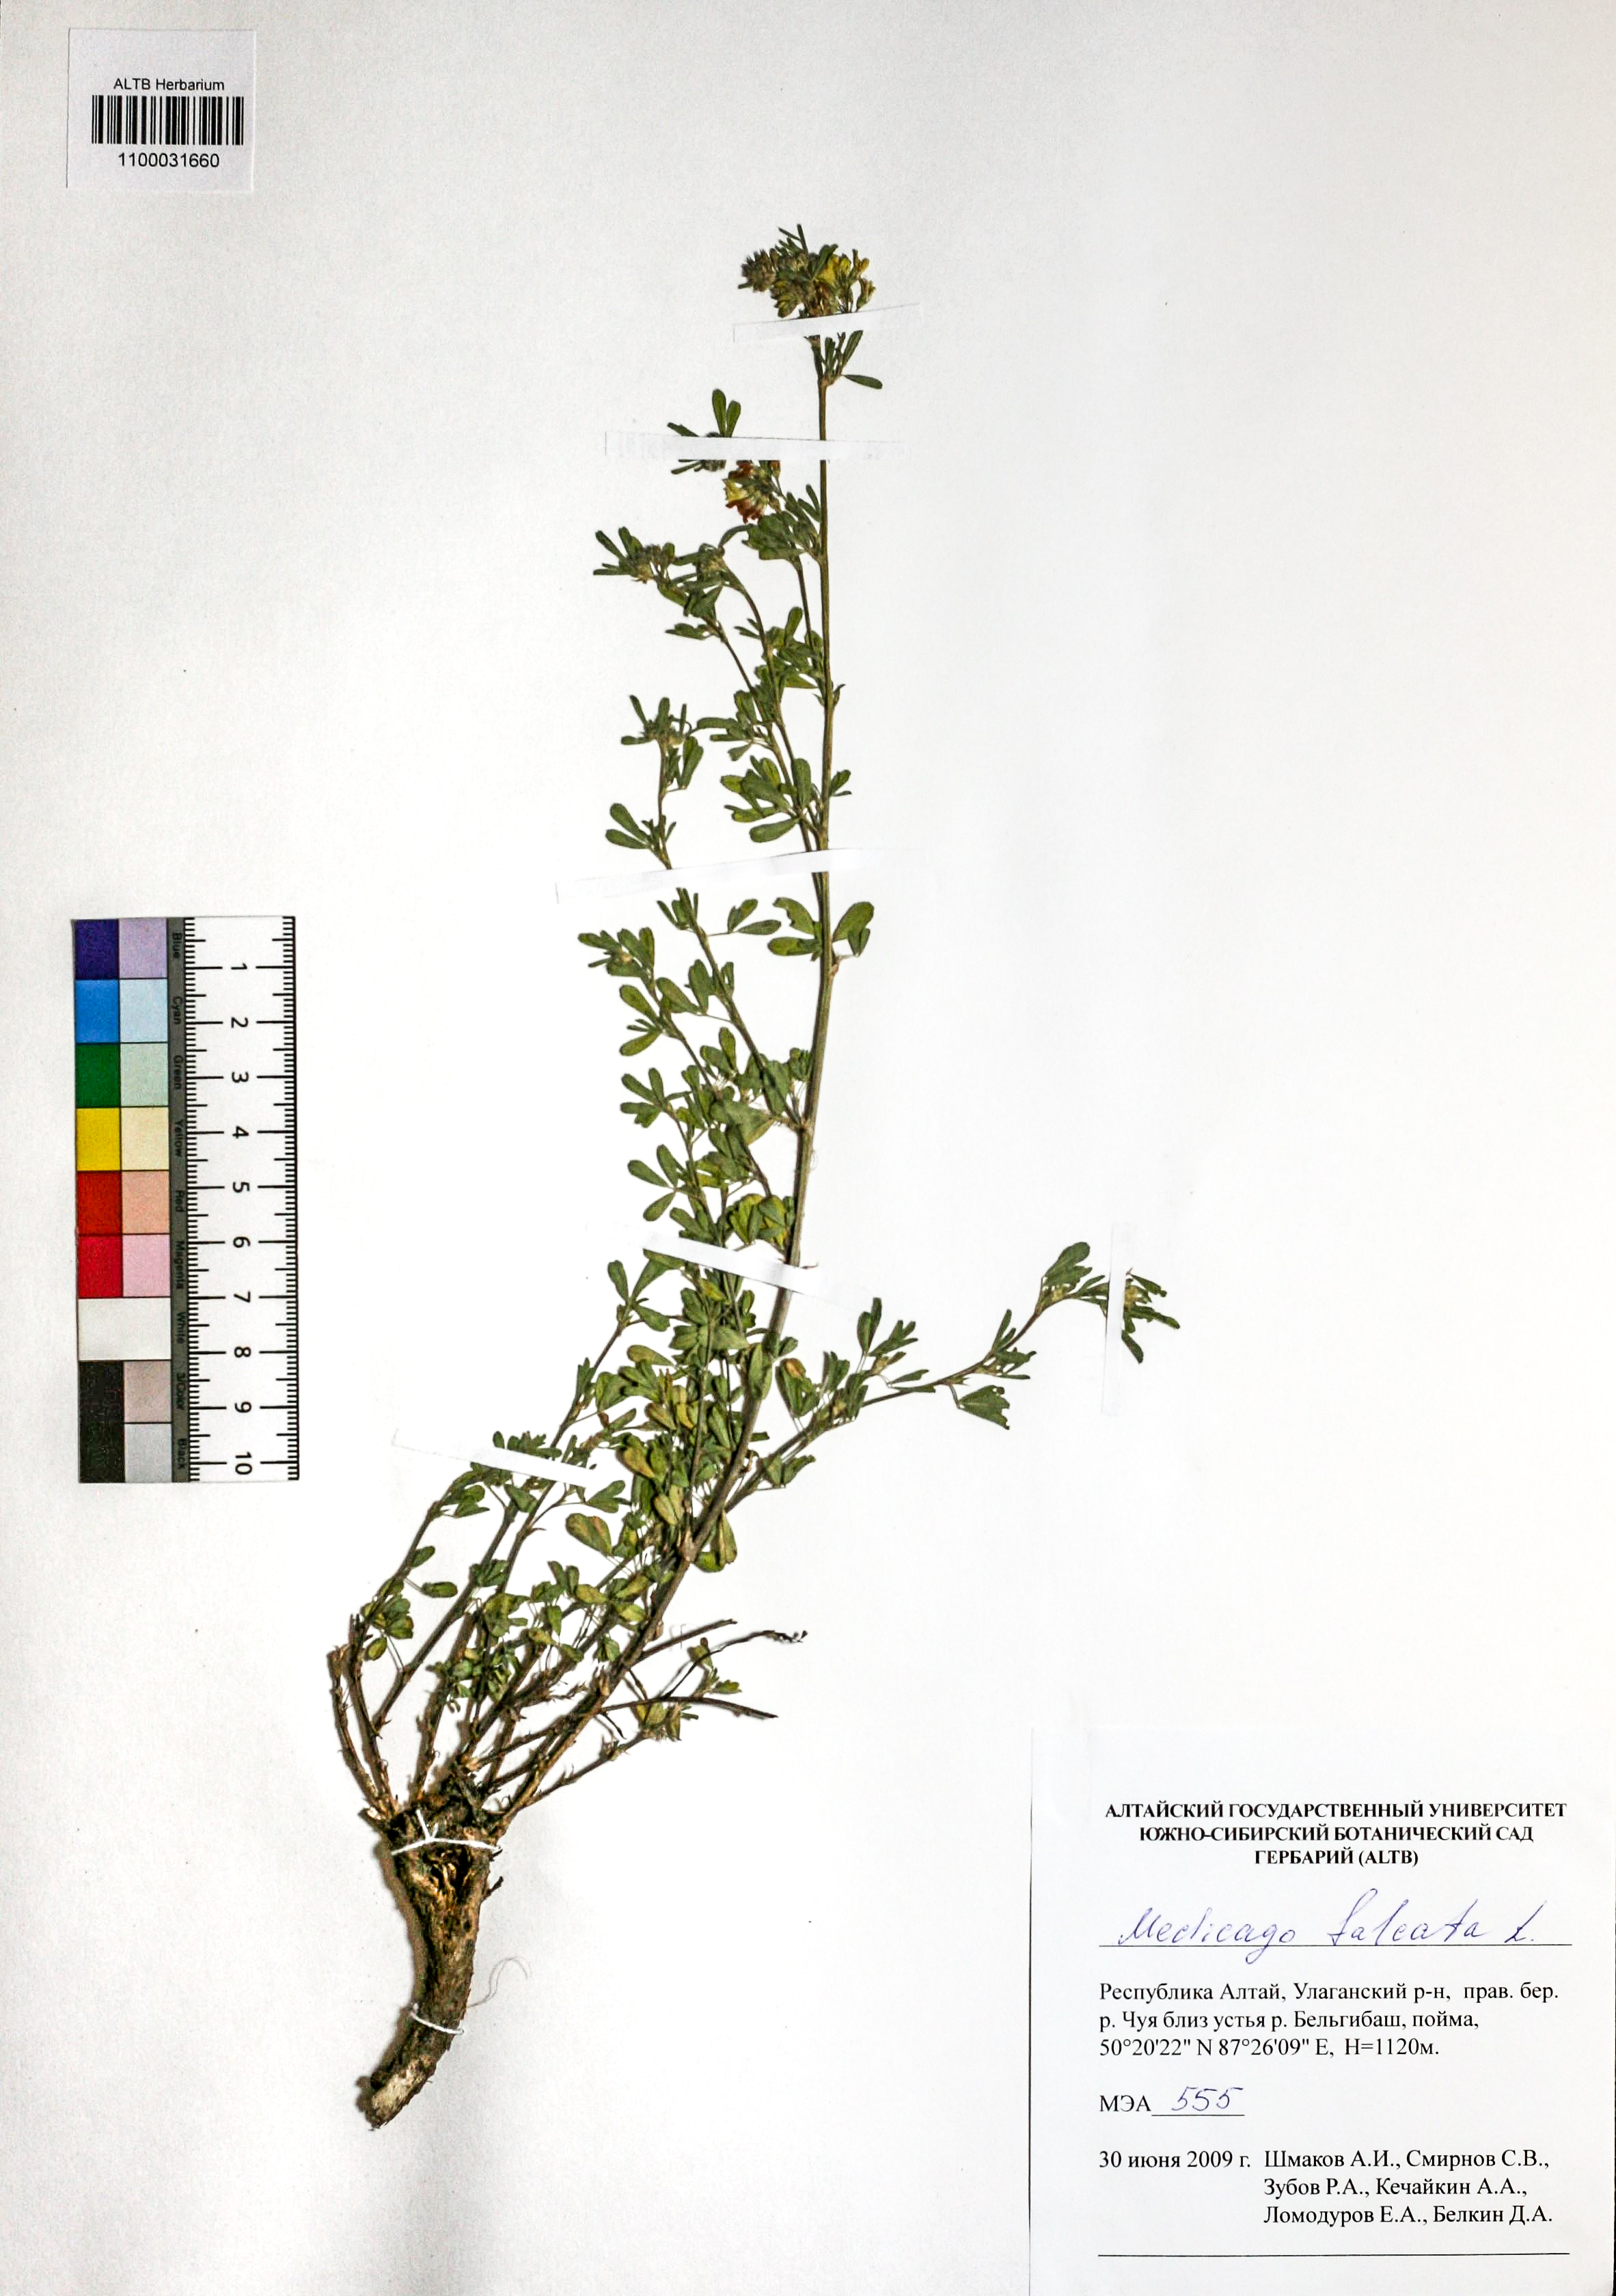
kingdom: Plantae
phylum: Tracheophyta
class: Magnoliopsida
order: Fabales
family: Fabaceae
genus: Medicago
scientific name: Medicago falcata
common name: Sickle medick
